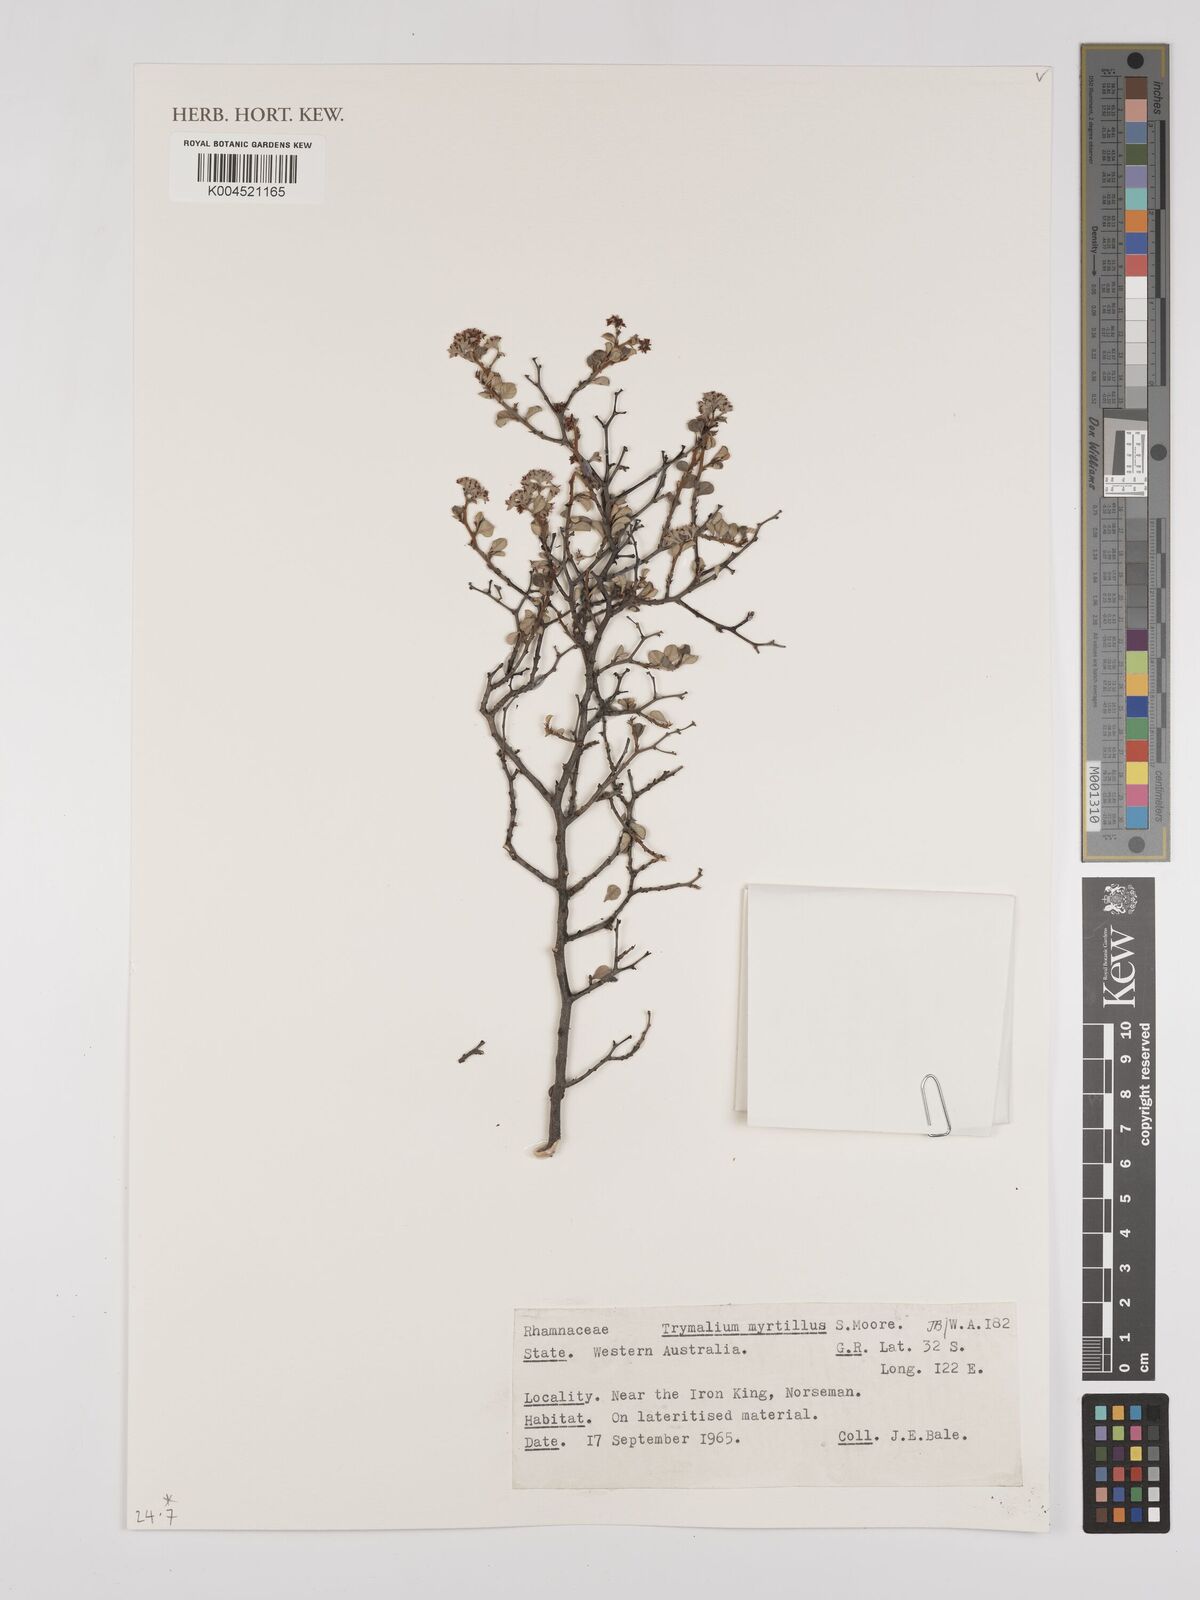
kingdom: Plantae
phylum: Tracheophyta
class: Magnoliopsida
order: Rosales
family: Rhamnaceae
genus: Trymalium
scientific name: Trymalium myrtillus
